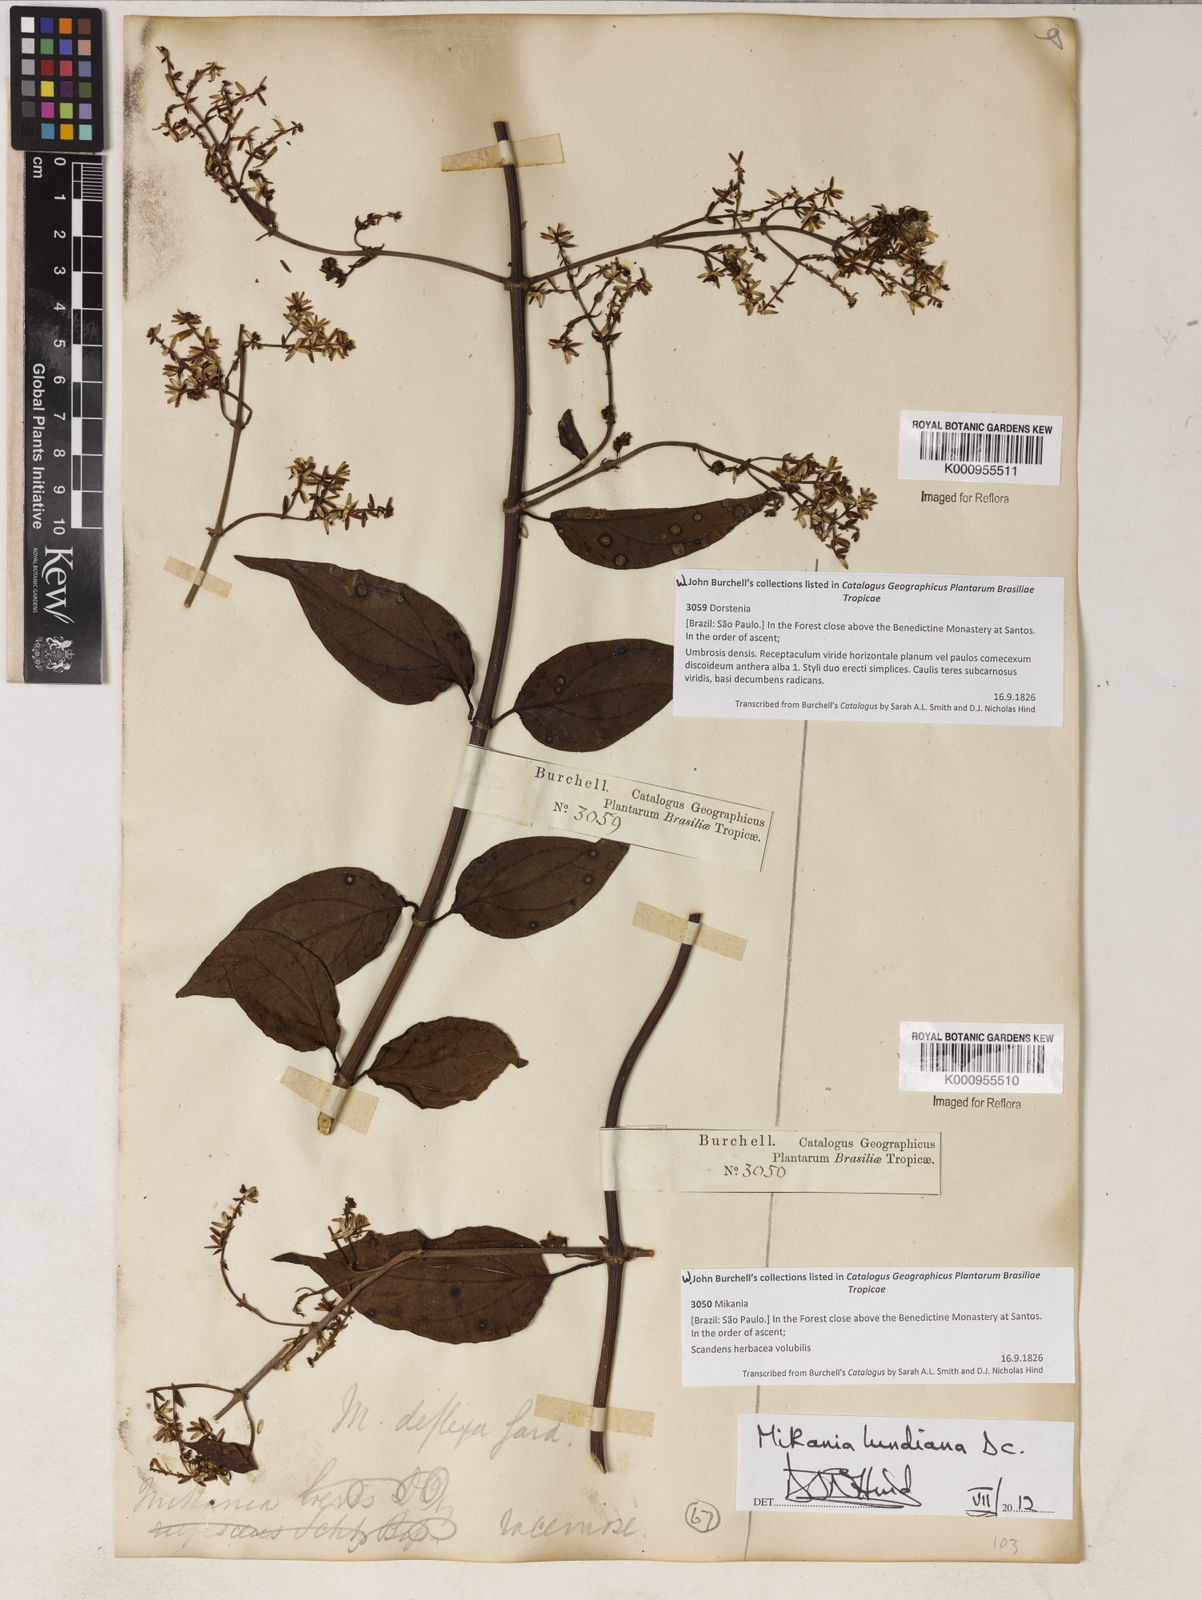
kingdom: Plantae
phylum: Tracheophyta
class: Magnoliopsida
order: Asterales
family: Asteraceae
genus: Mikania
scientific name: Mikania lundiana
